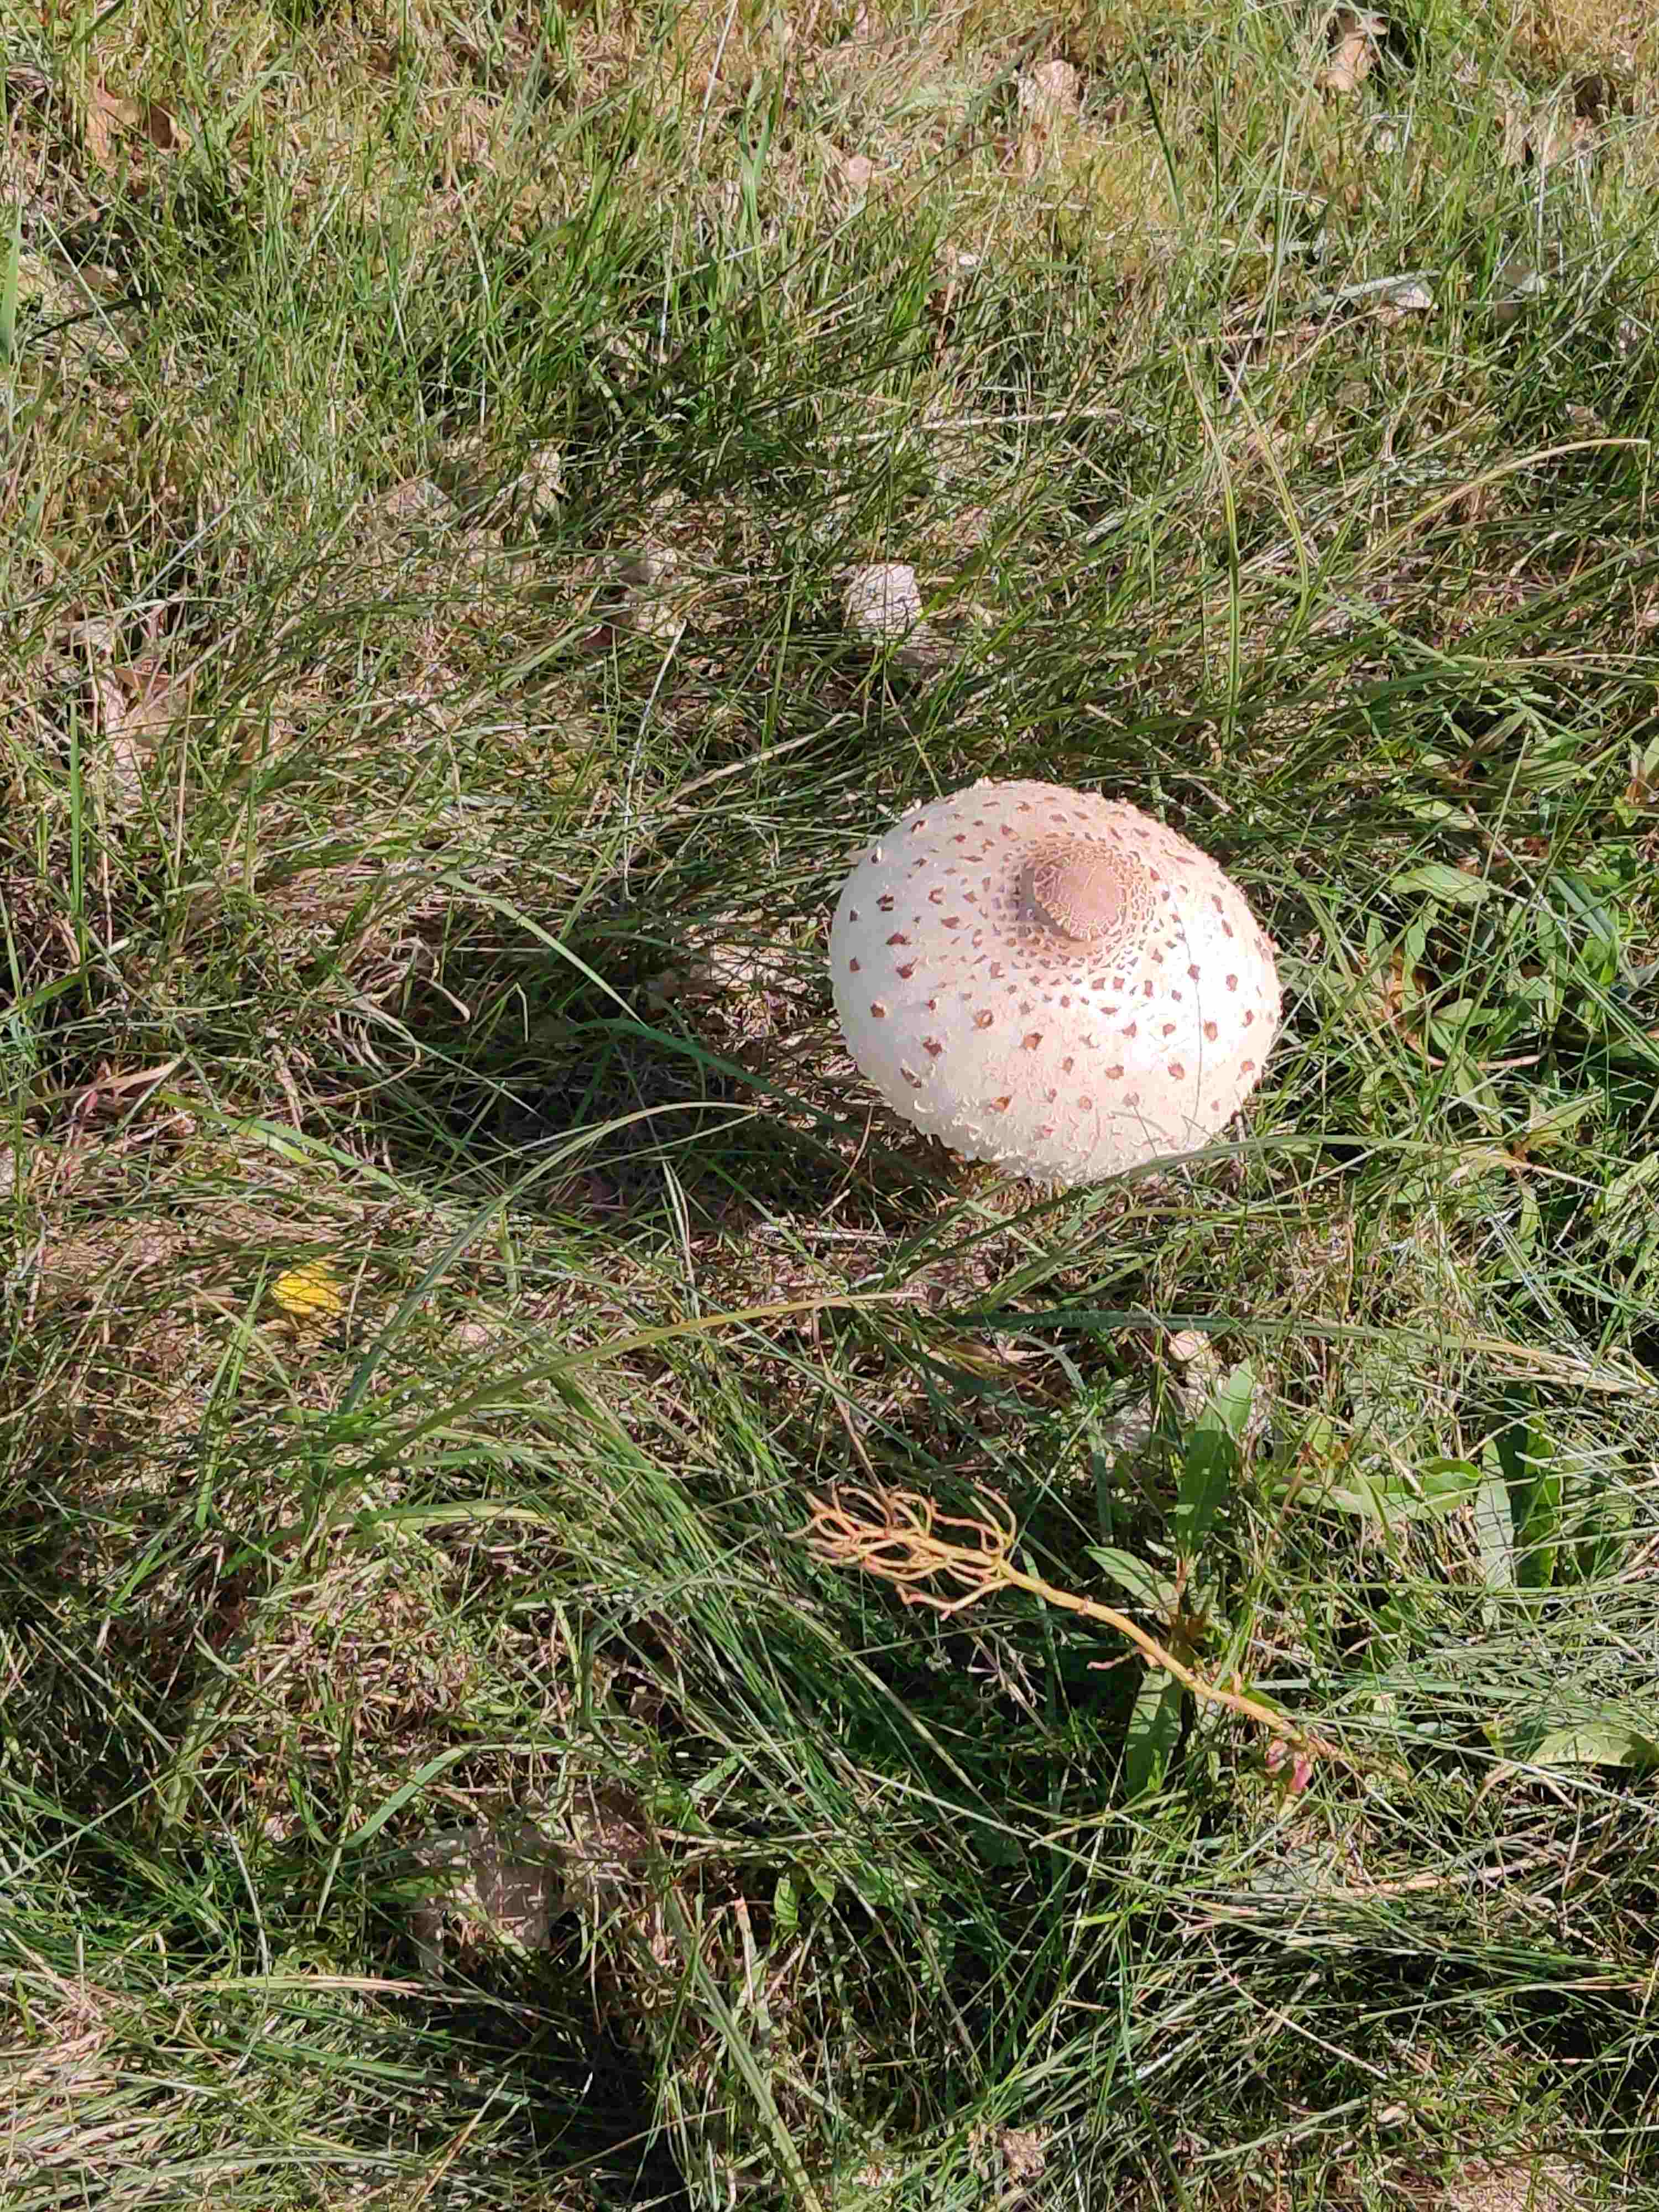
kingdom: Fungi
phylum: Basidiomycota
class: Agaricomycetes
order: Agaricales
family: Agaricaceae
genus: Macrolepiota
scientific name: Macrolepiota procera
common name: stor kæmpeparasolhat
